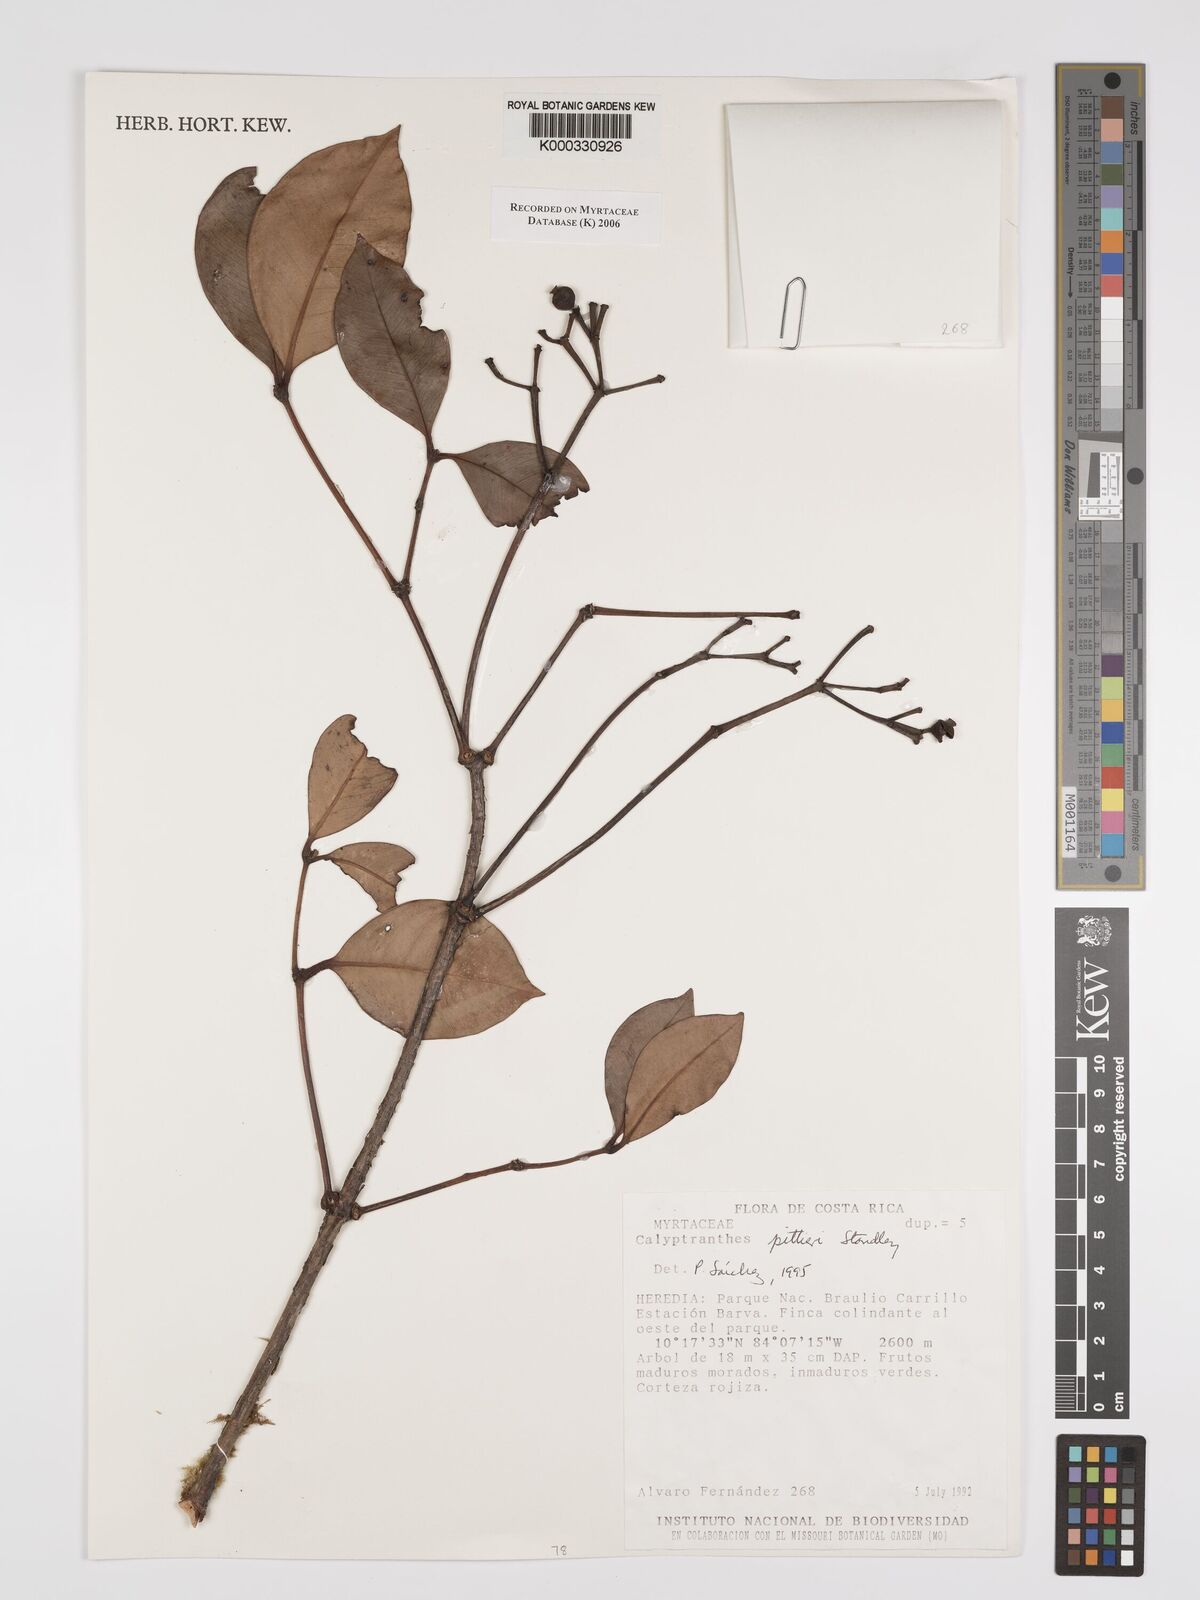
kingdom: Plantae
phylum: Tracheophyta
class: Magnoliopsida
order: Myrtales
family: Myrtaceae
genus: Myrcia
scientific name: Myrcia pittieri
